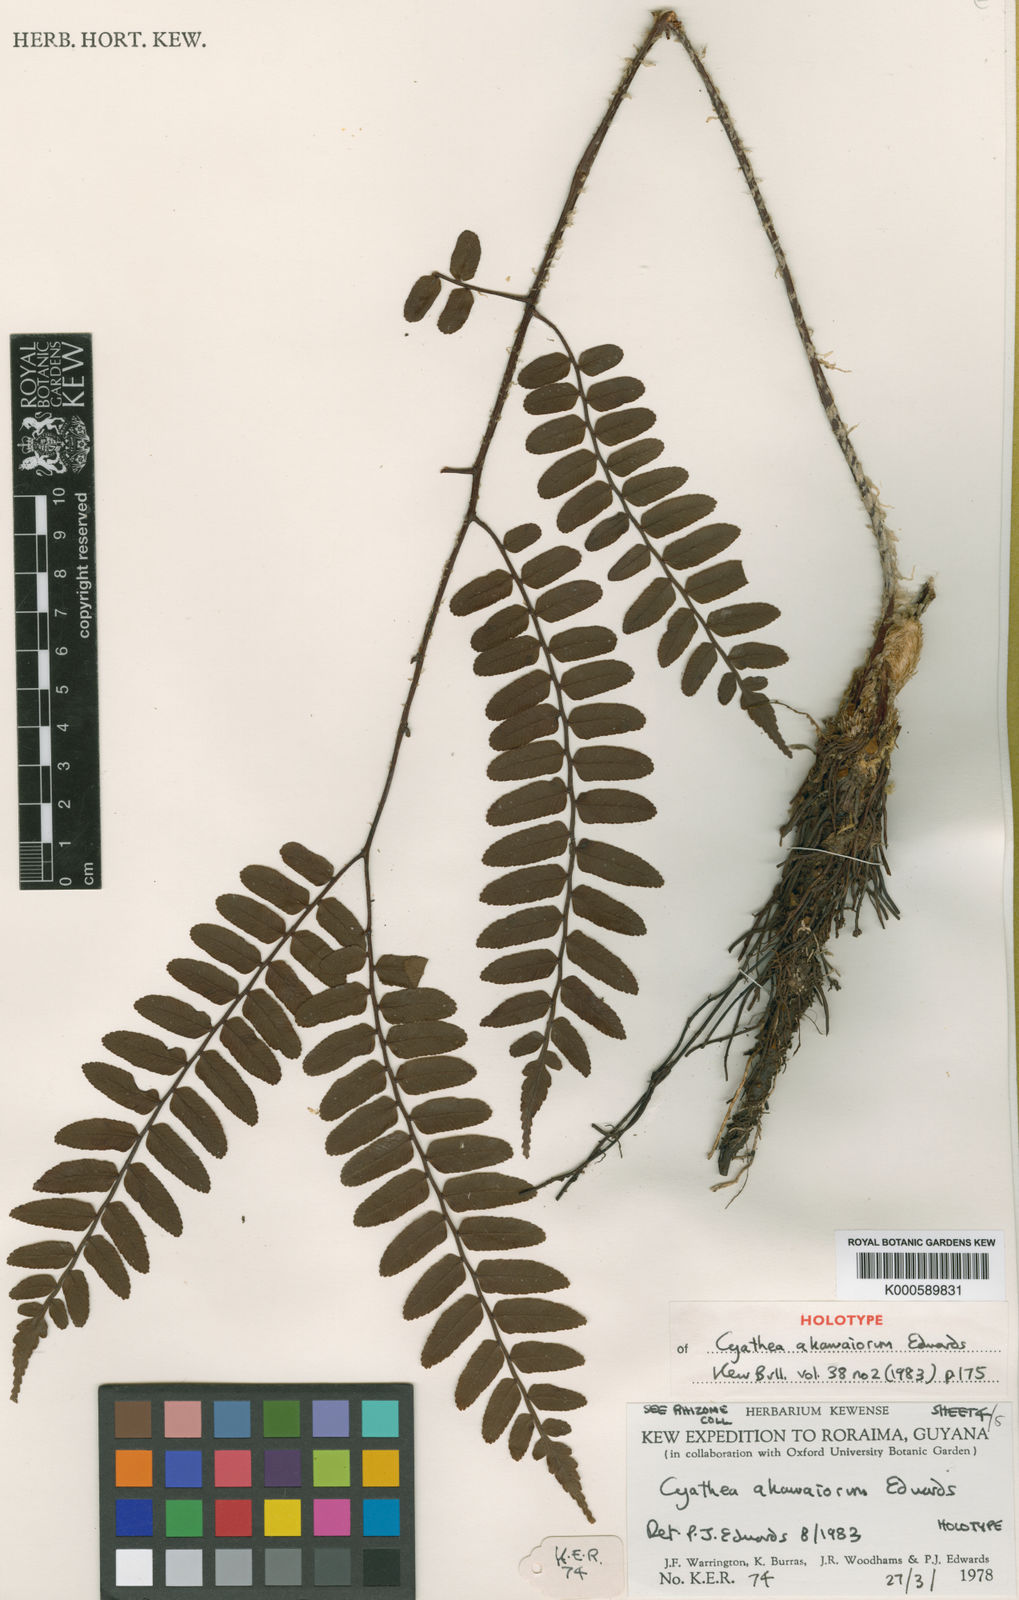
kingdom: Plantae
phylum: Tracheophyta
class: Polypodiopsida
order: Cyatheales
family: Cyatheaceae
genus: Cyathea
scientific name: Cyathea akawaiorum
